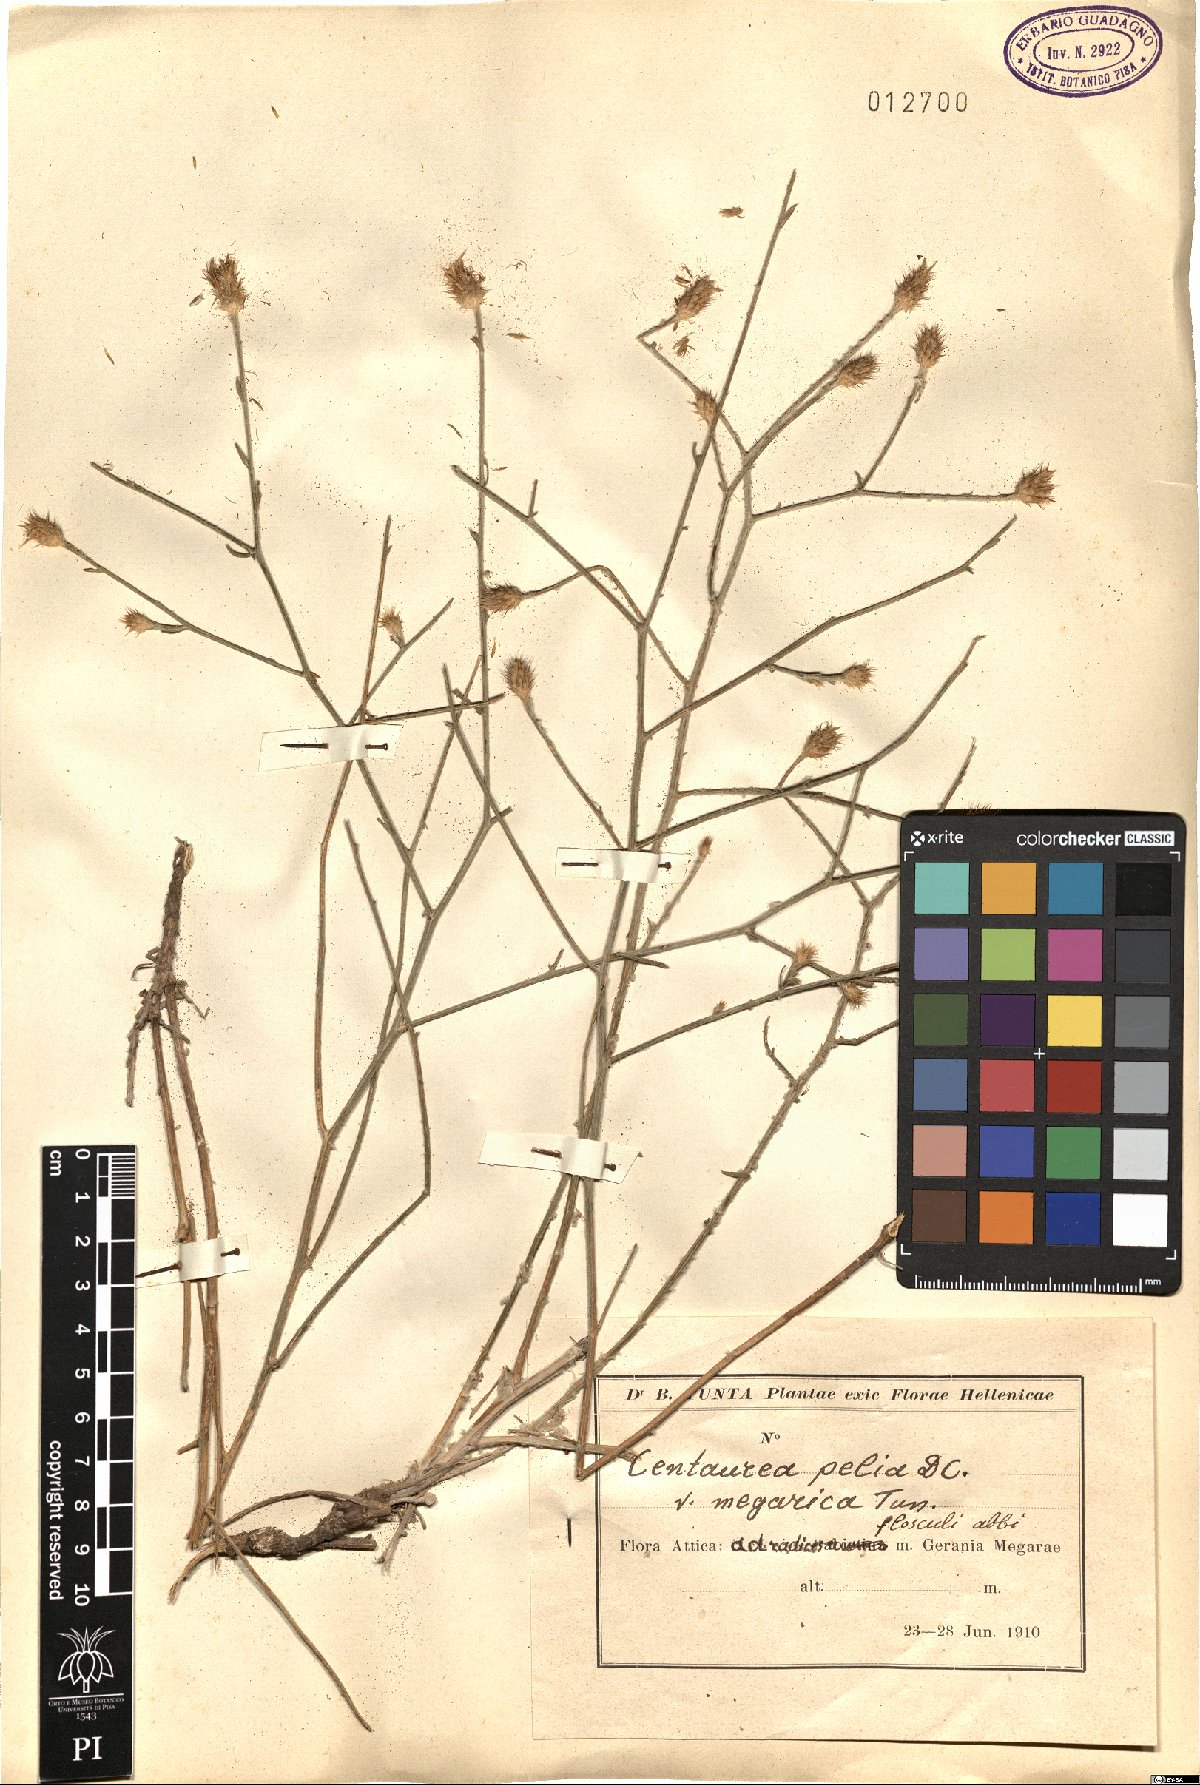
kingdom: Plantae
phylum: Tracheophyta
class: Magnoliopsida
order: Asterales
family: Asteraceae
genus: Centaurea
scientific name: Centaurea pelia
